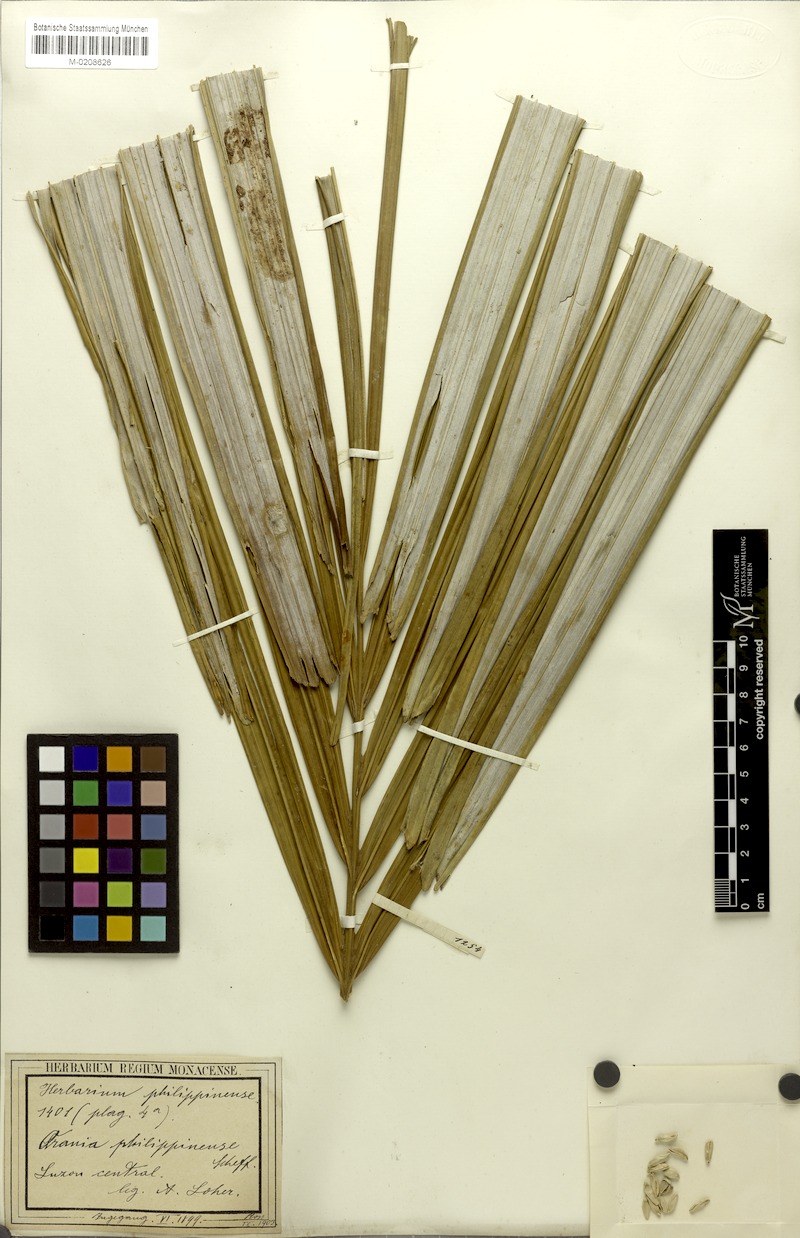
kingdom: Plantae
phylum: Tracheophyta
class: Liliopsida
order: Arecales
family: Arecaceae
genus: Orania
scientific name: Orania palindan
